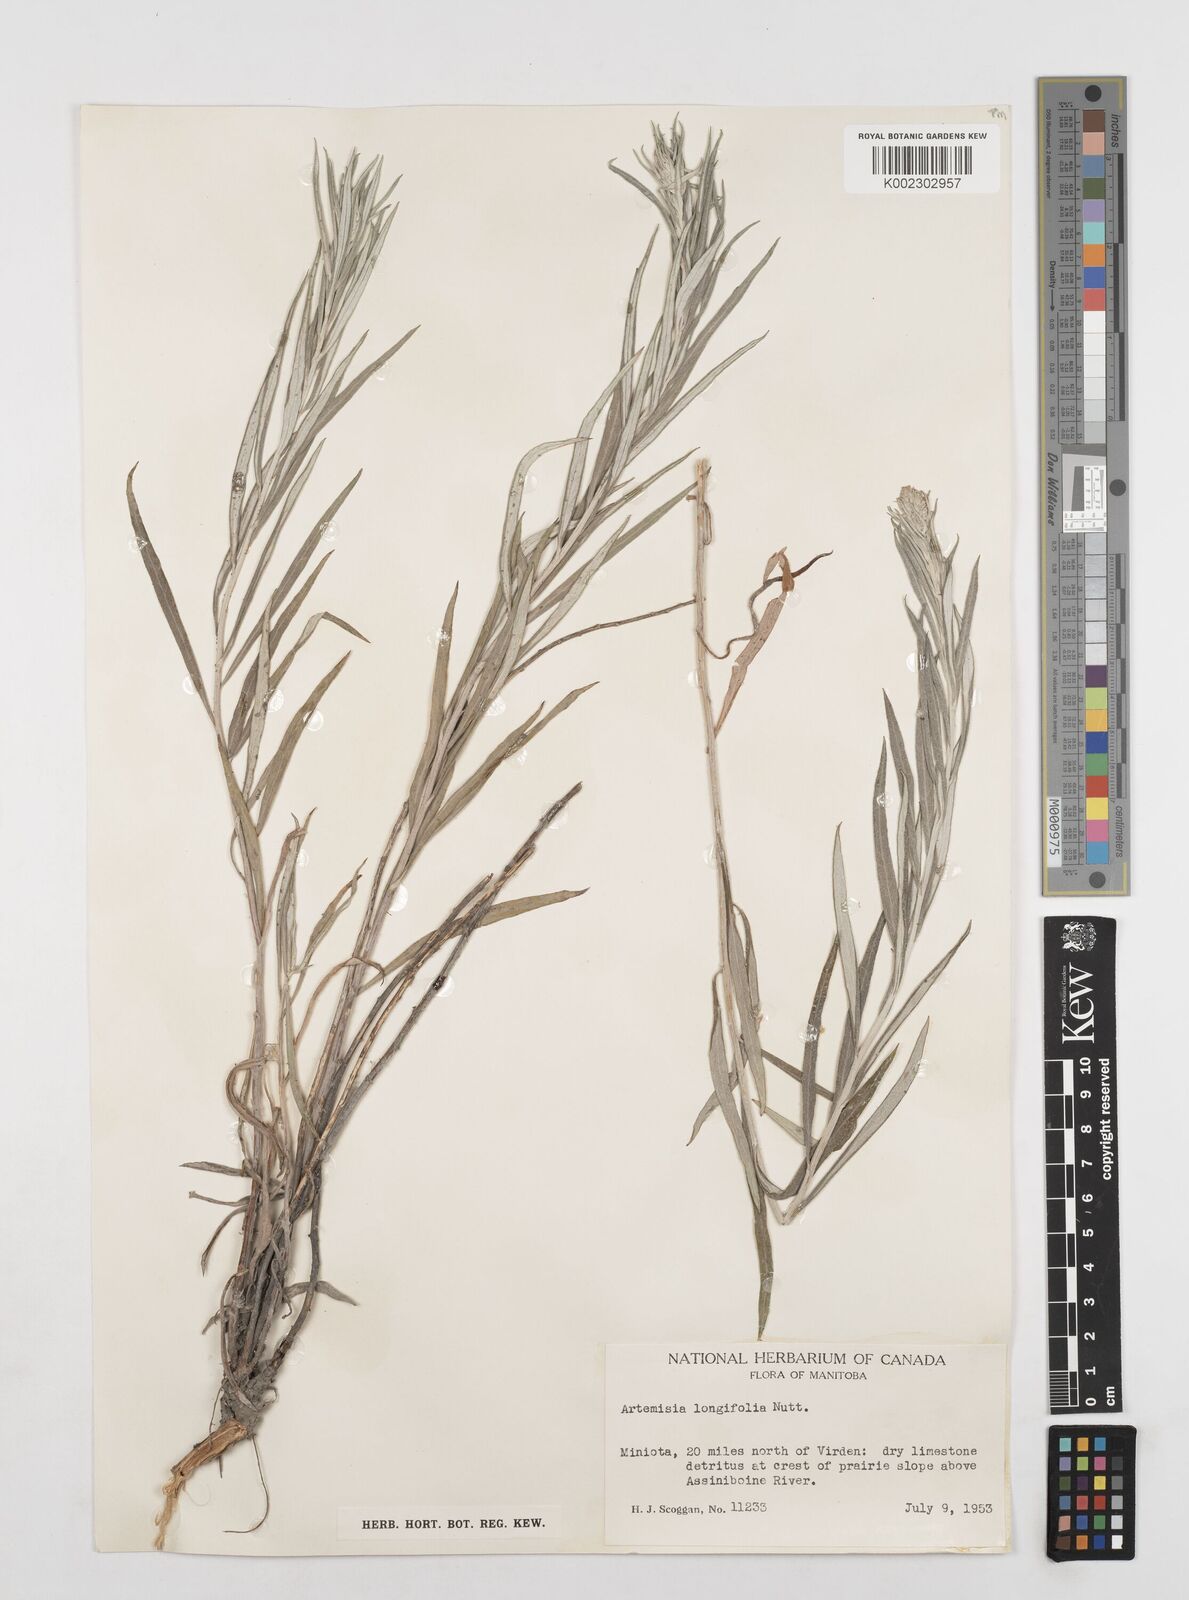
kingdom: Plantae
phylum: Tracheophyta
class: Magnoliopsida
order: Asterales
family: Asteraceae
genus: Artemisia
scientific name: Artemisia longifolia
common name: Long-leaved mugwort
